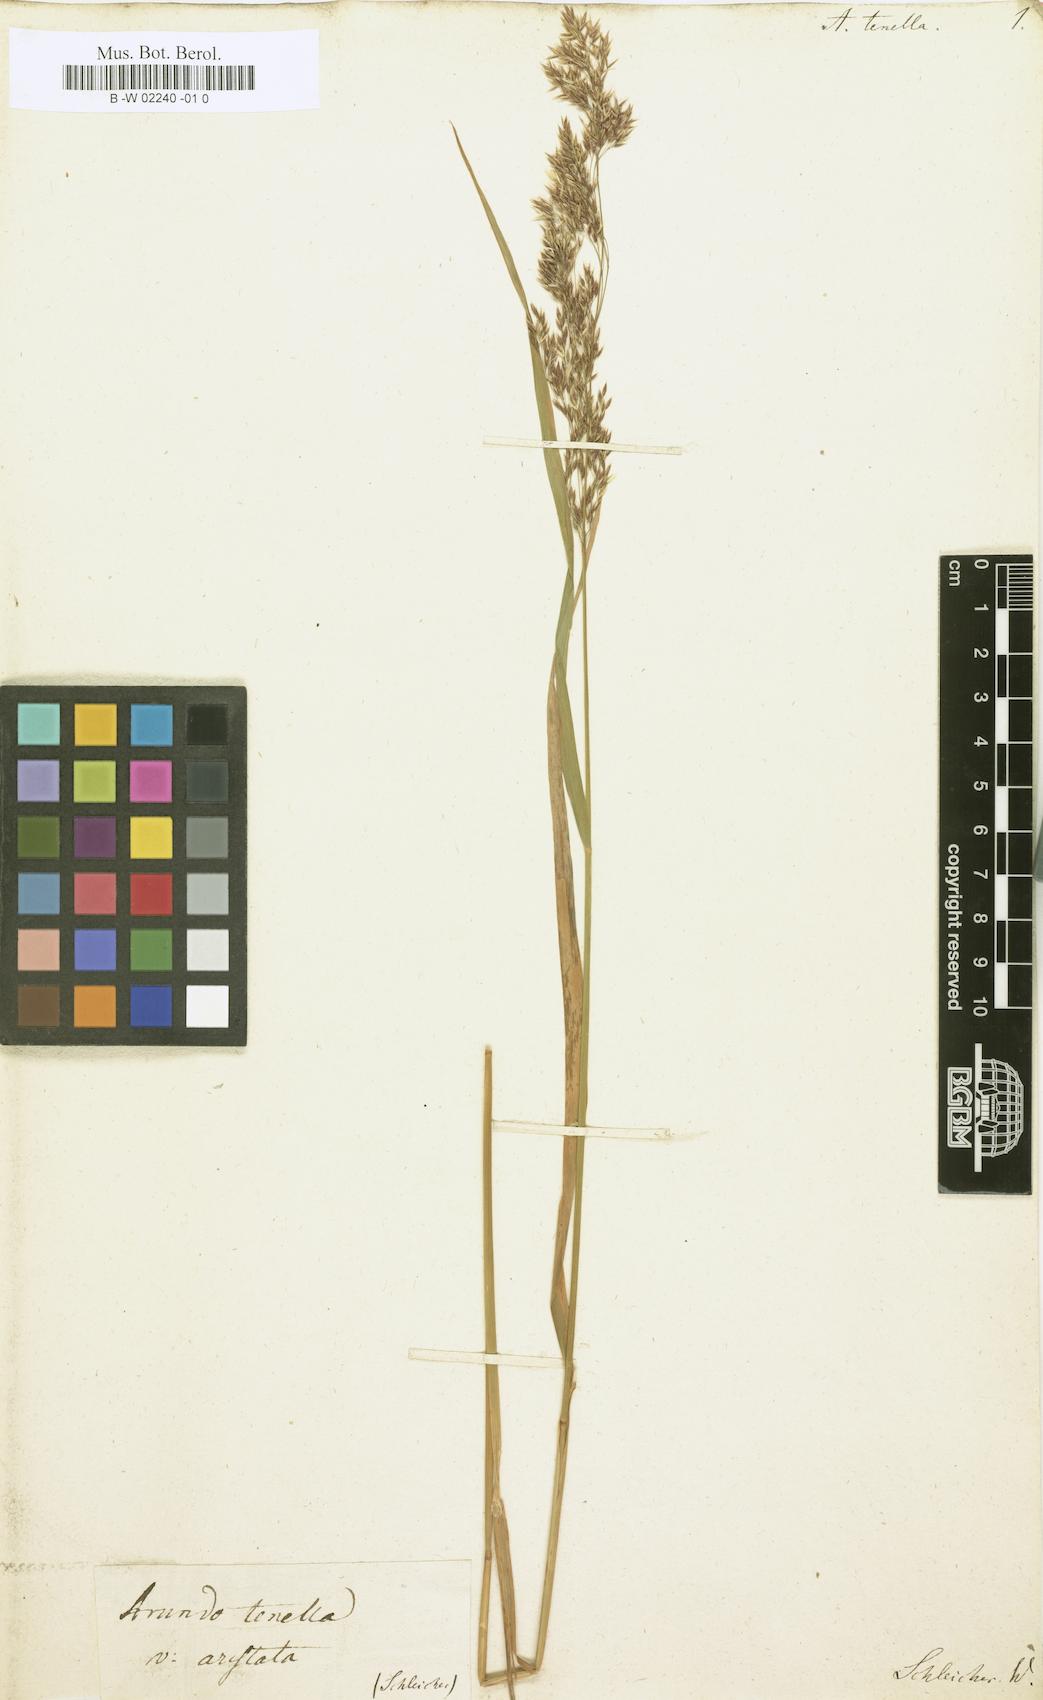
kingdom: Plantae
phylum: Tracheophyta
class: Liliopsida
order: Poales
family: Poaceae
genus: Agrostis
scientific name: Agrostis schraderiana
